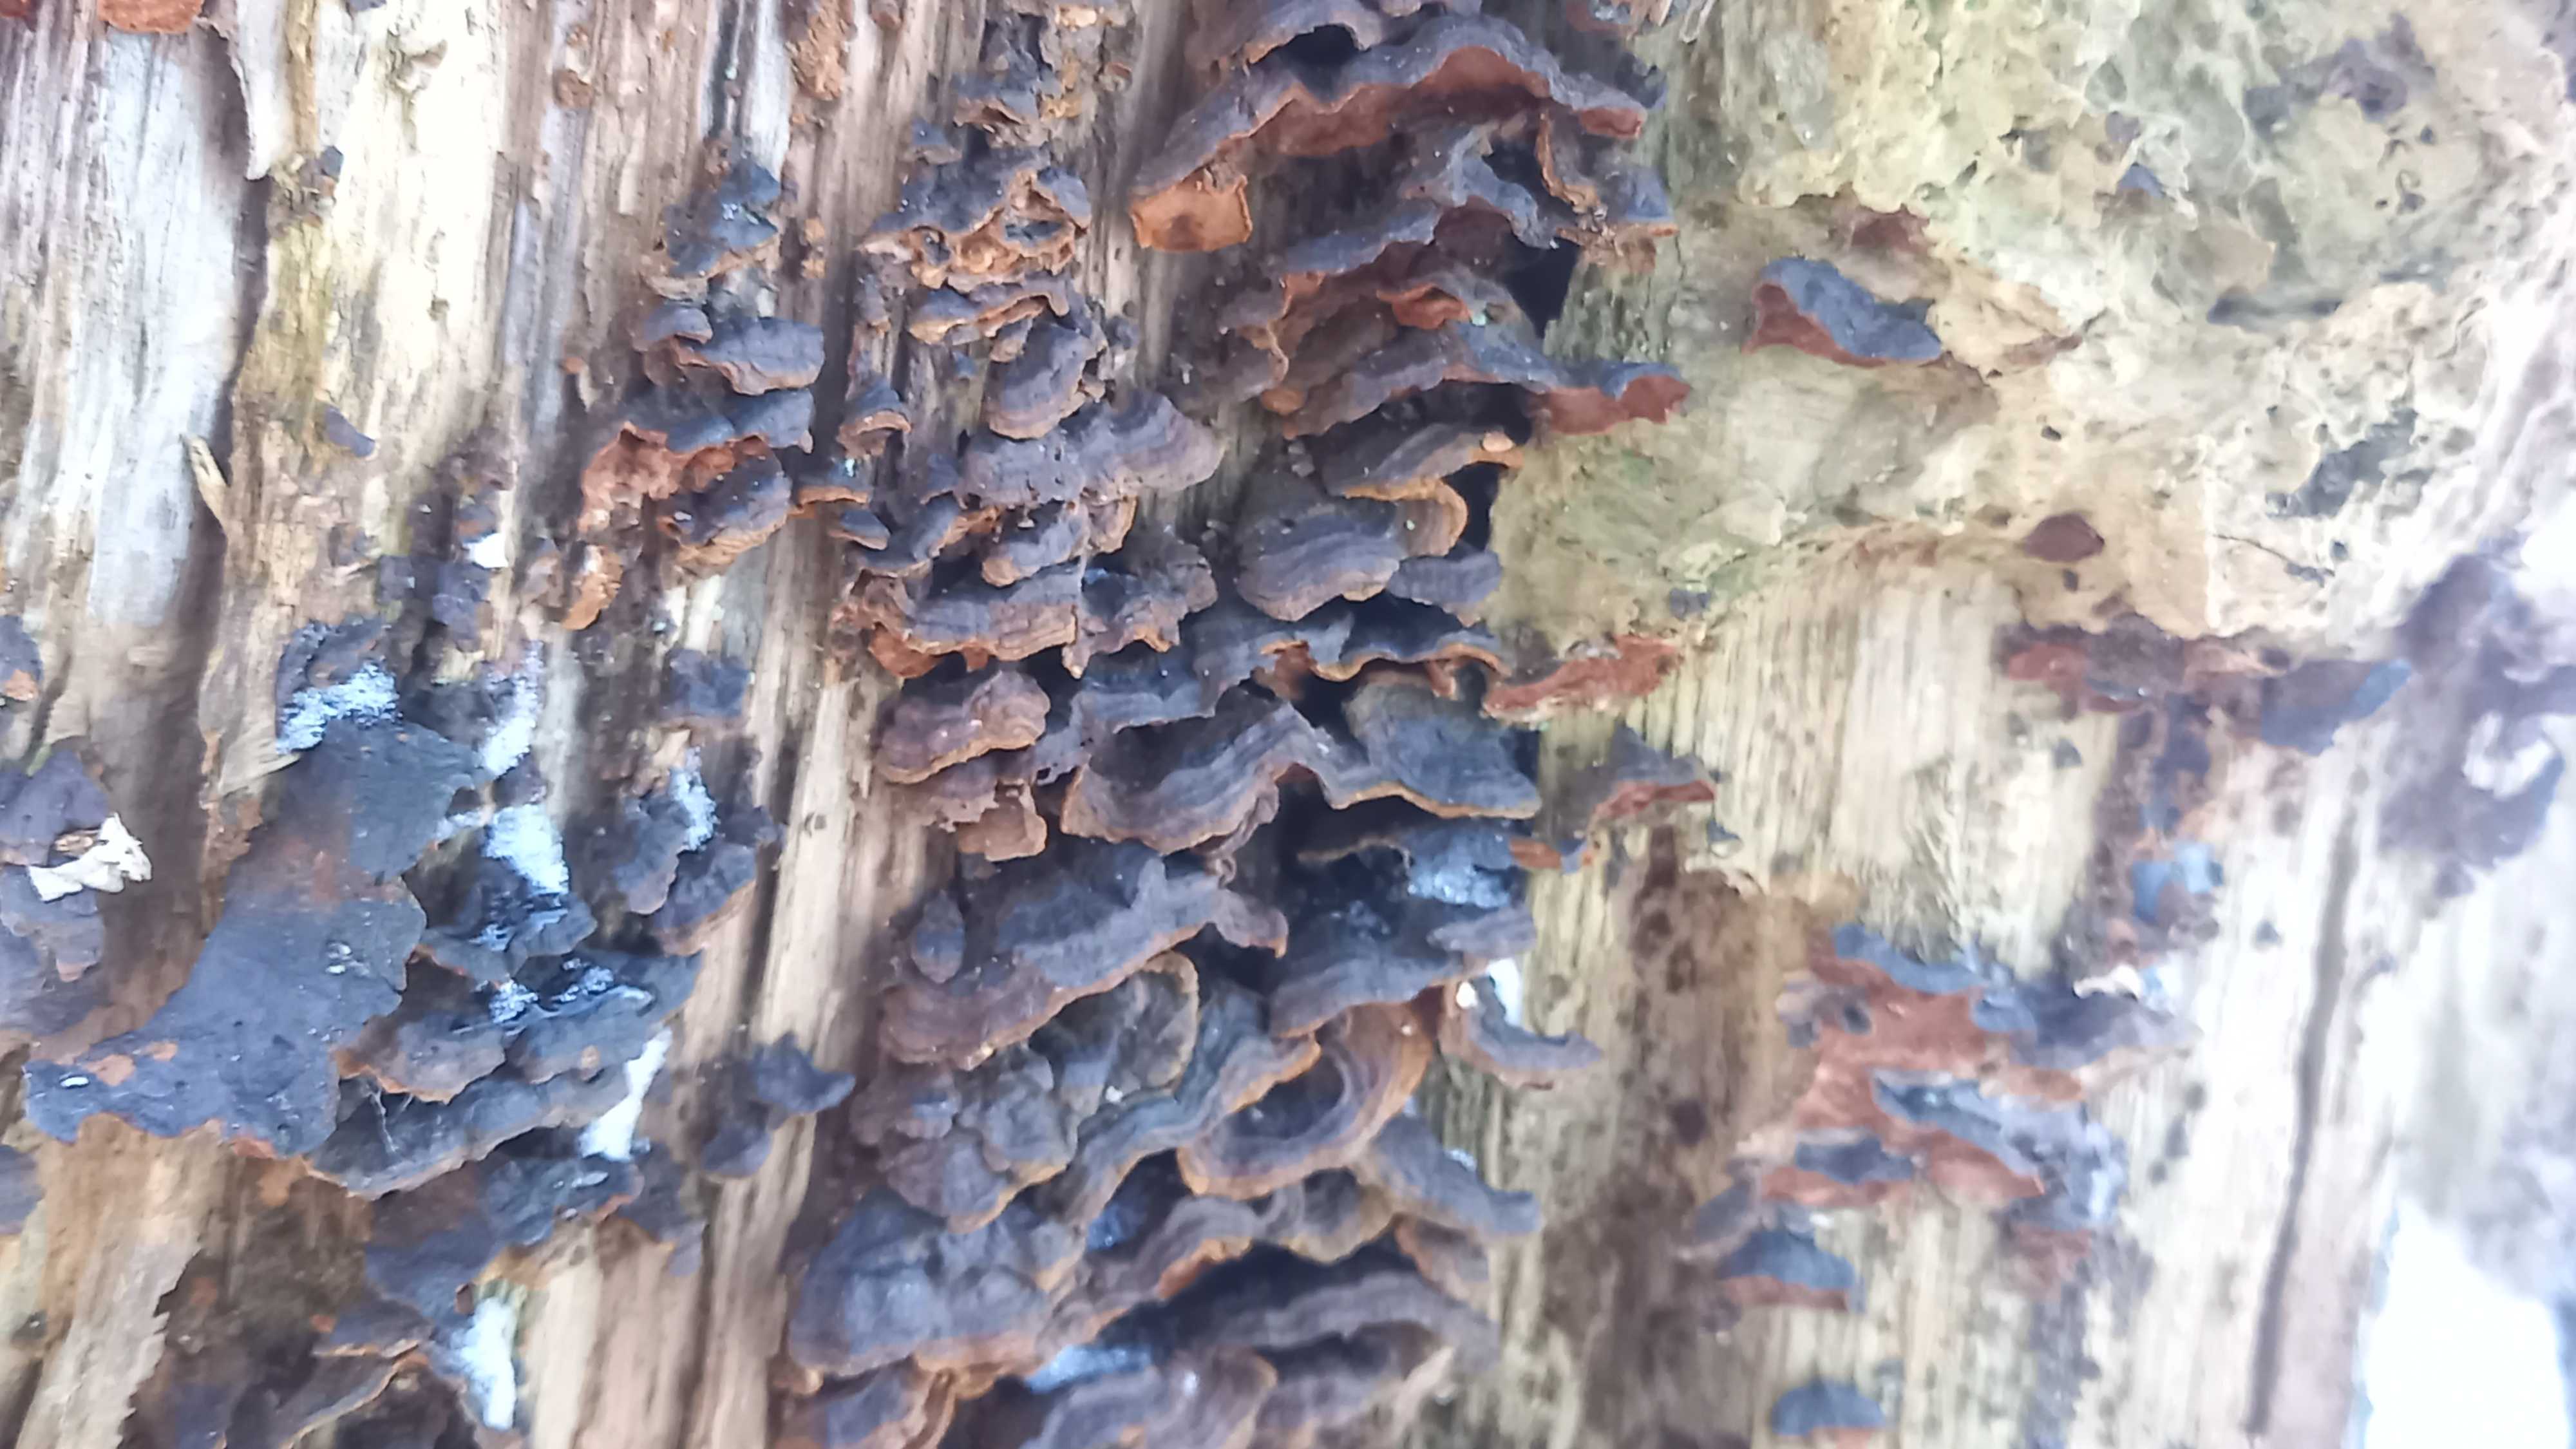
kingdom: Fungi
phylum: Basidiomycota
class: Agaricomycetes
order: Hymenochaetales
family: Hymenochaetaceae
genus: Hymenochaete
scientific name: Hymenochaete rubiginosa
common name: stiv ruslædersvamp
